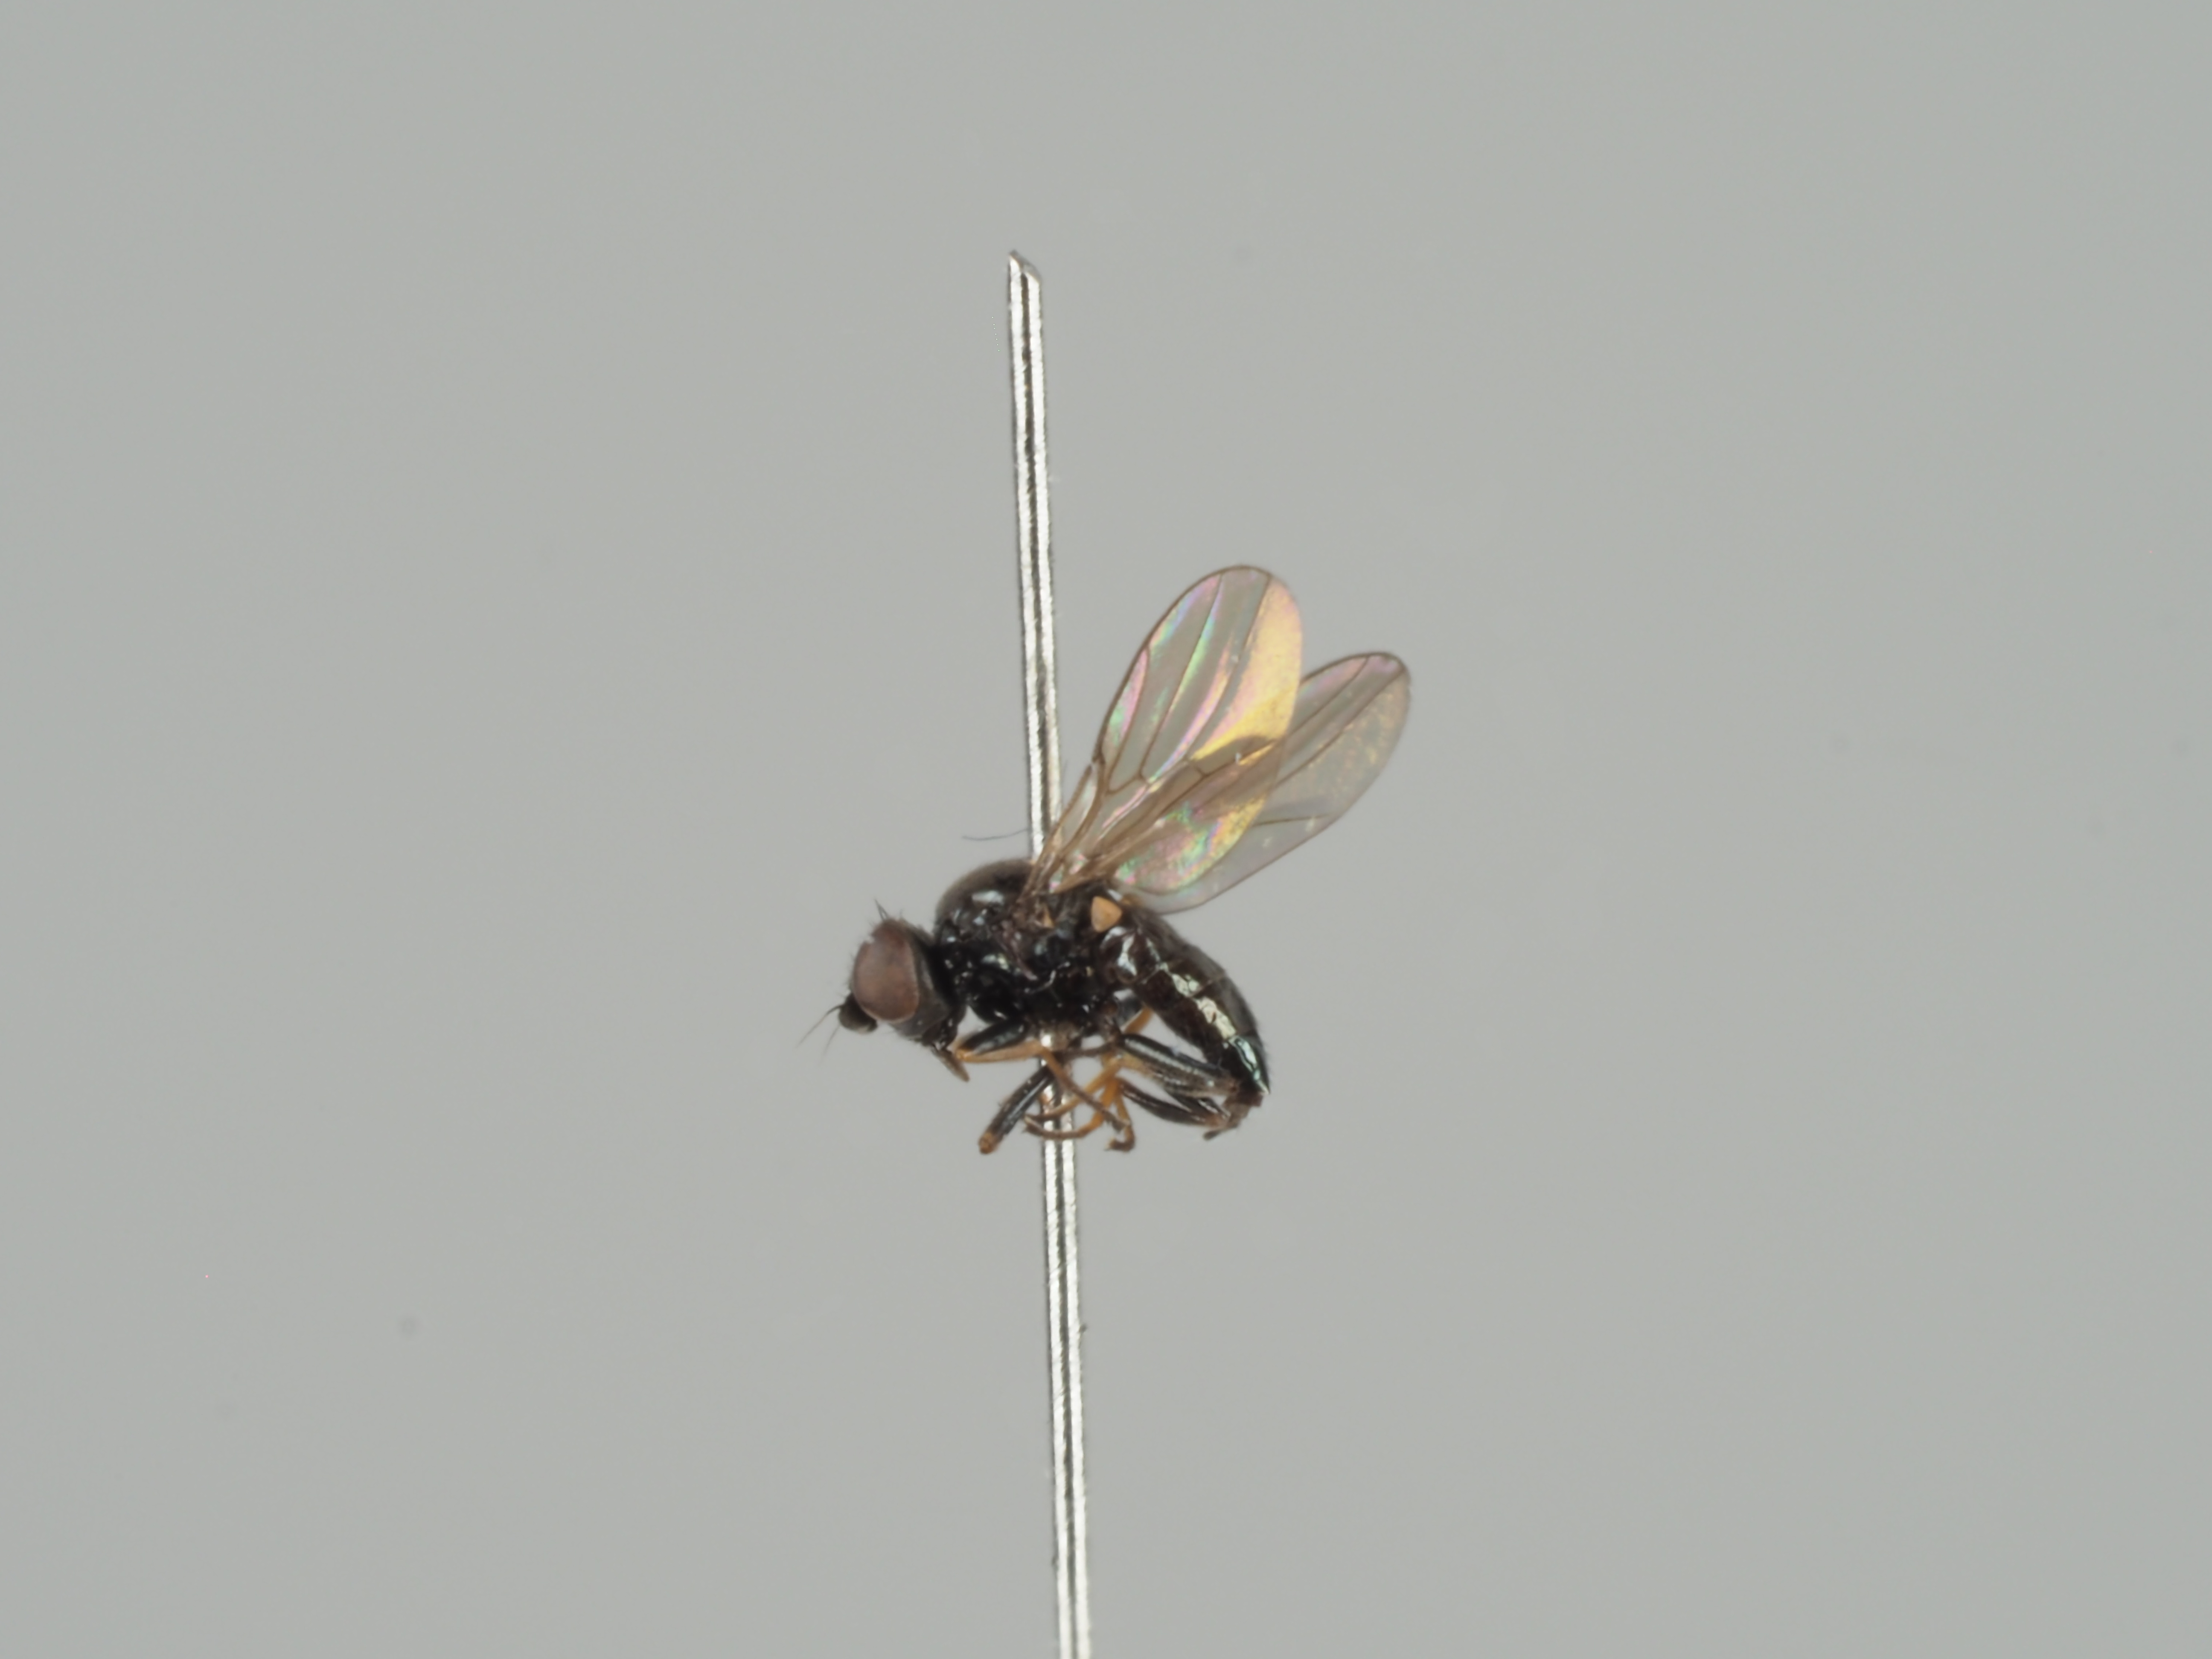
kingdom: Animalia
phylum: Arthropoda
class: Insecta
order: Diptera
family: Chloropidae
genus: Oscinella
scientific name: Oscinella pusilla
